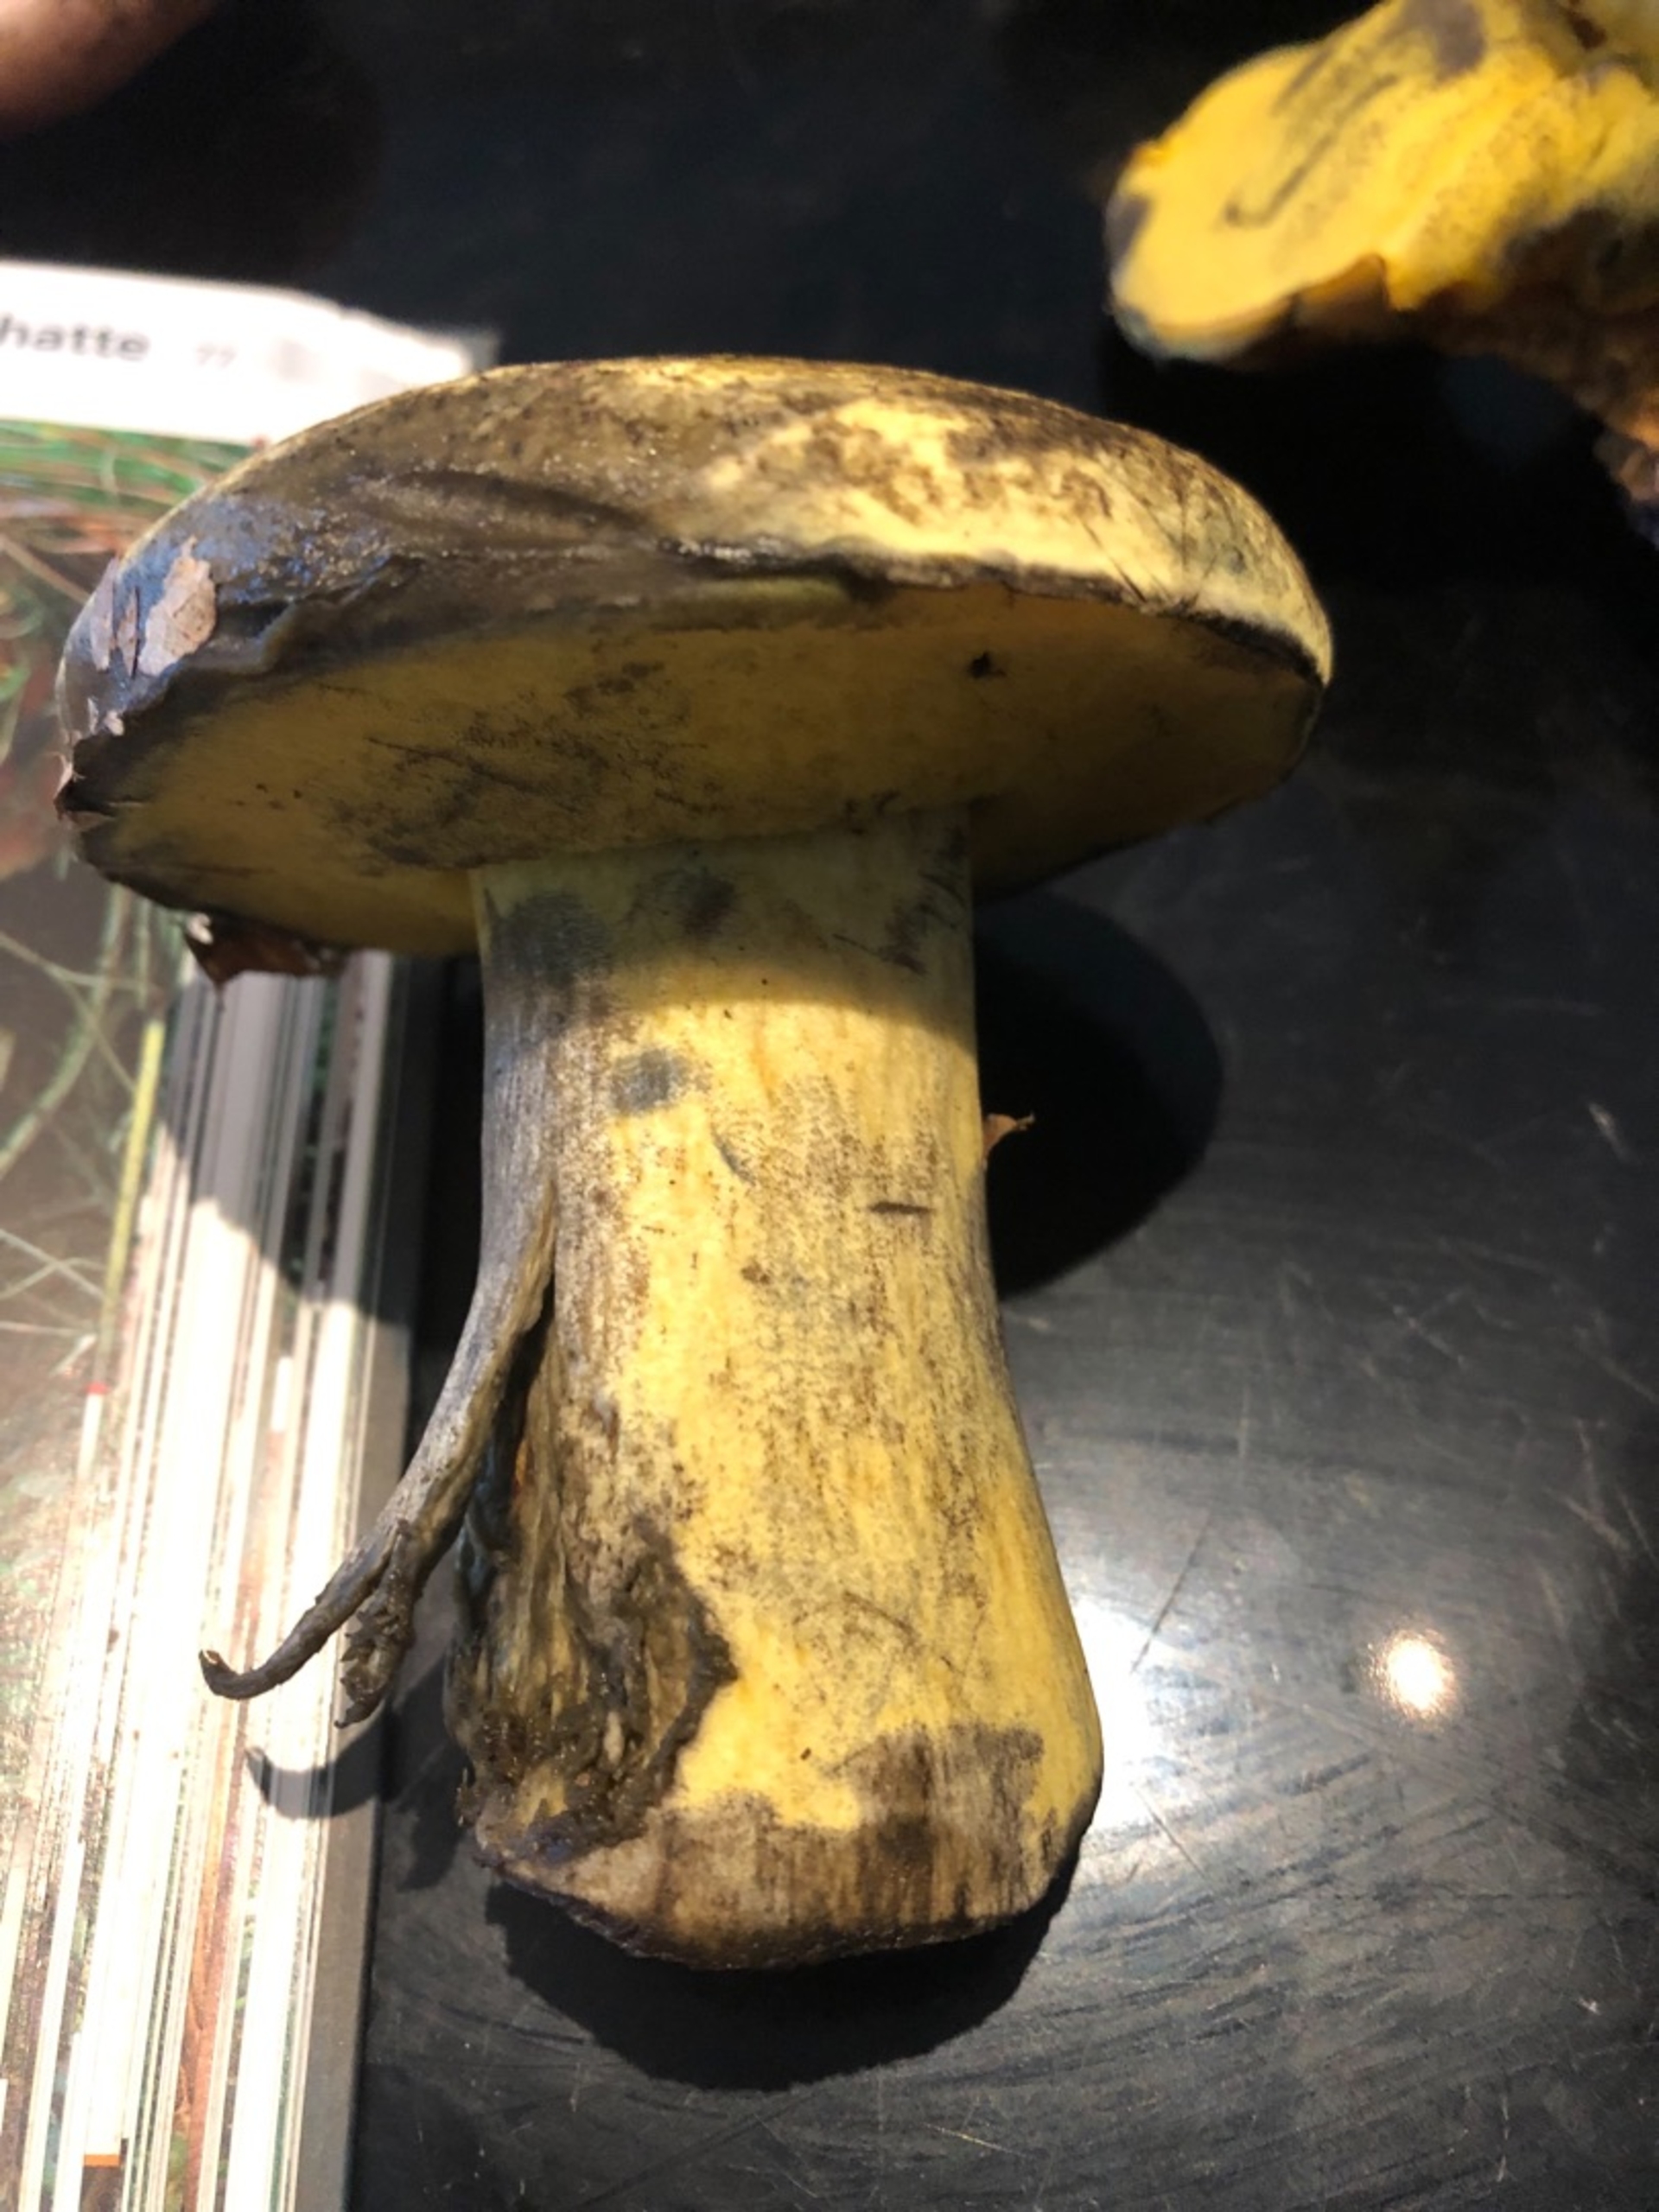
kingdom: Fungi
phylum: Basidiomycota
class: Agaricomycetes
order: Boletales
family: Boletaceae
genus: Neoboletus
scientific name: Neoboletus praestigiator
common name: Gul indigorørhat
